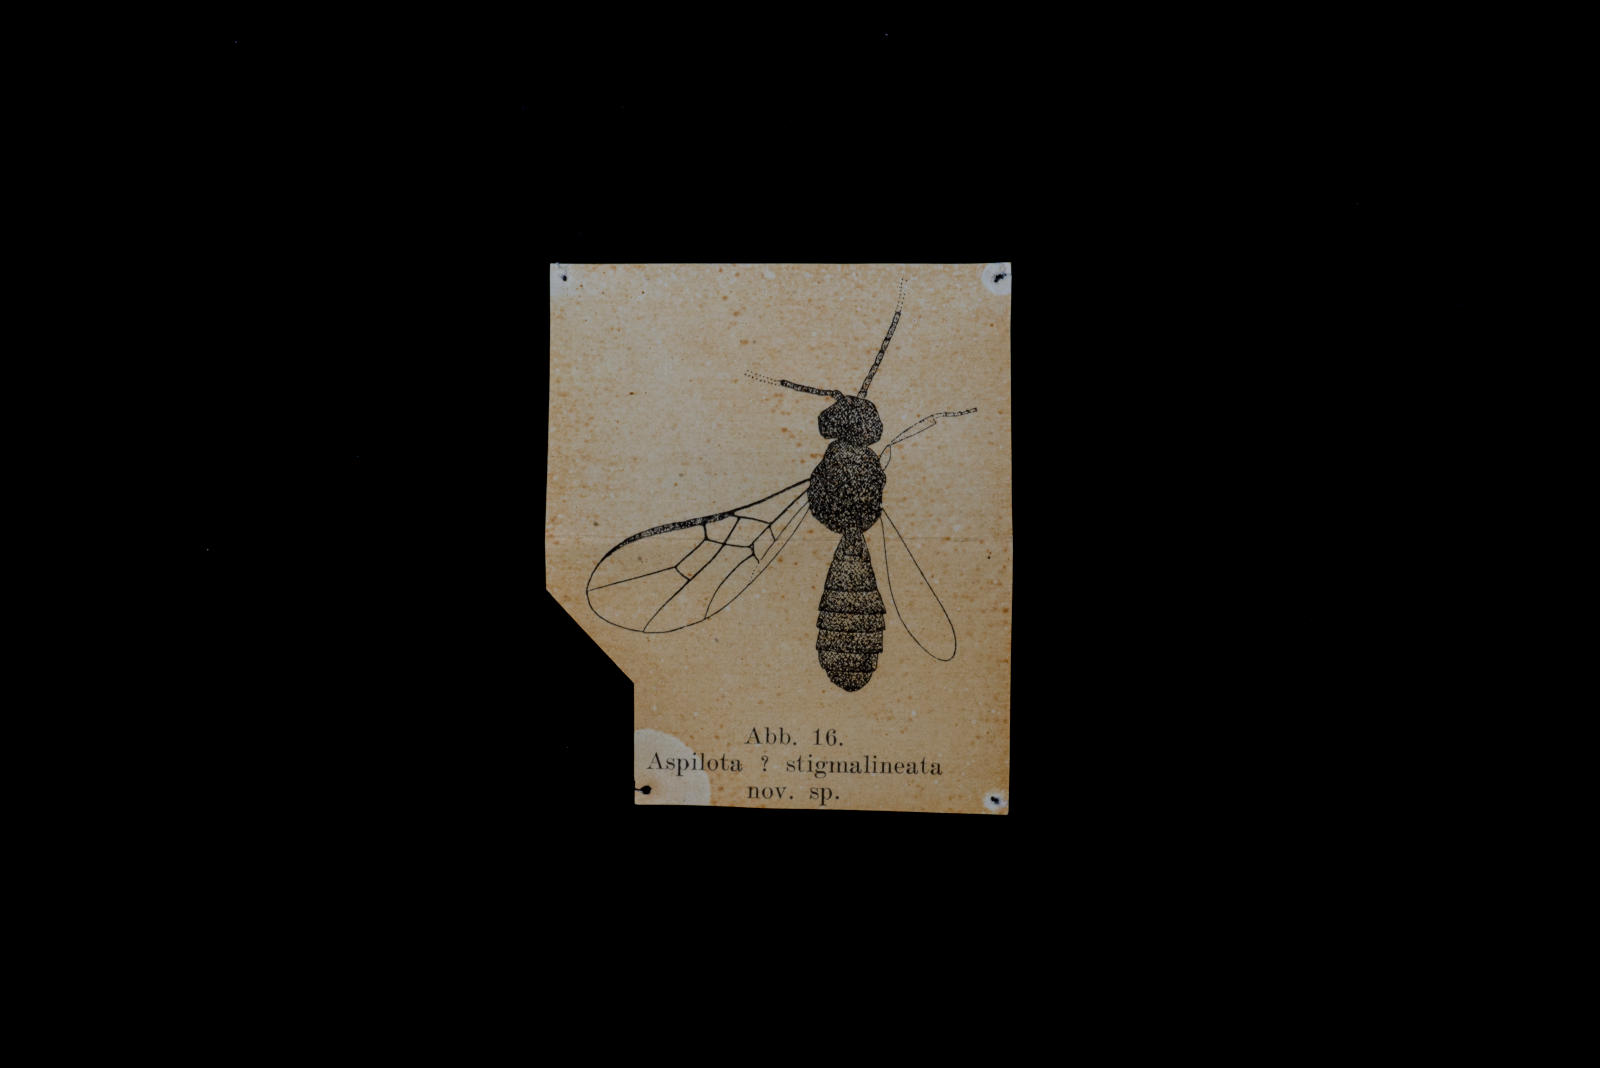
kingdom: Animalia
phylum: Arthropoda
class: Insecta
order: Hymenoptera
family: Braconidae
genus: Aspilota
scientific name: Aspilota stigmalineata
